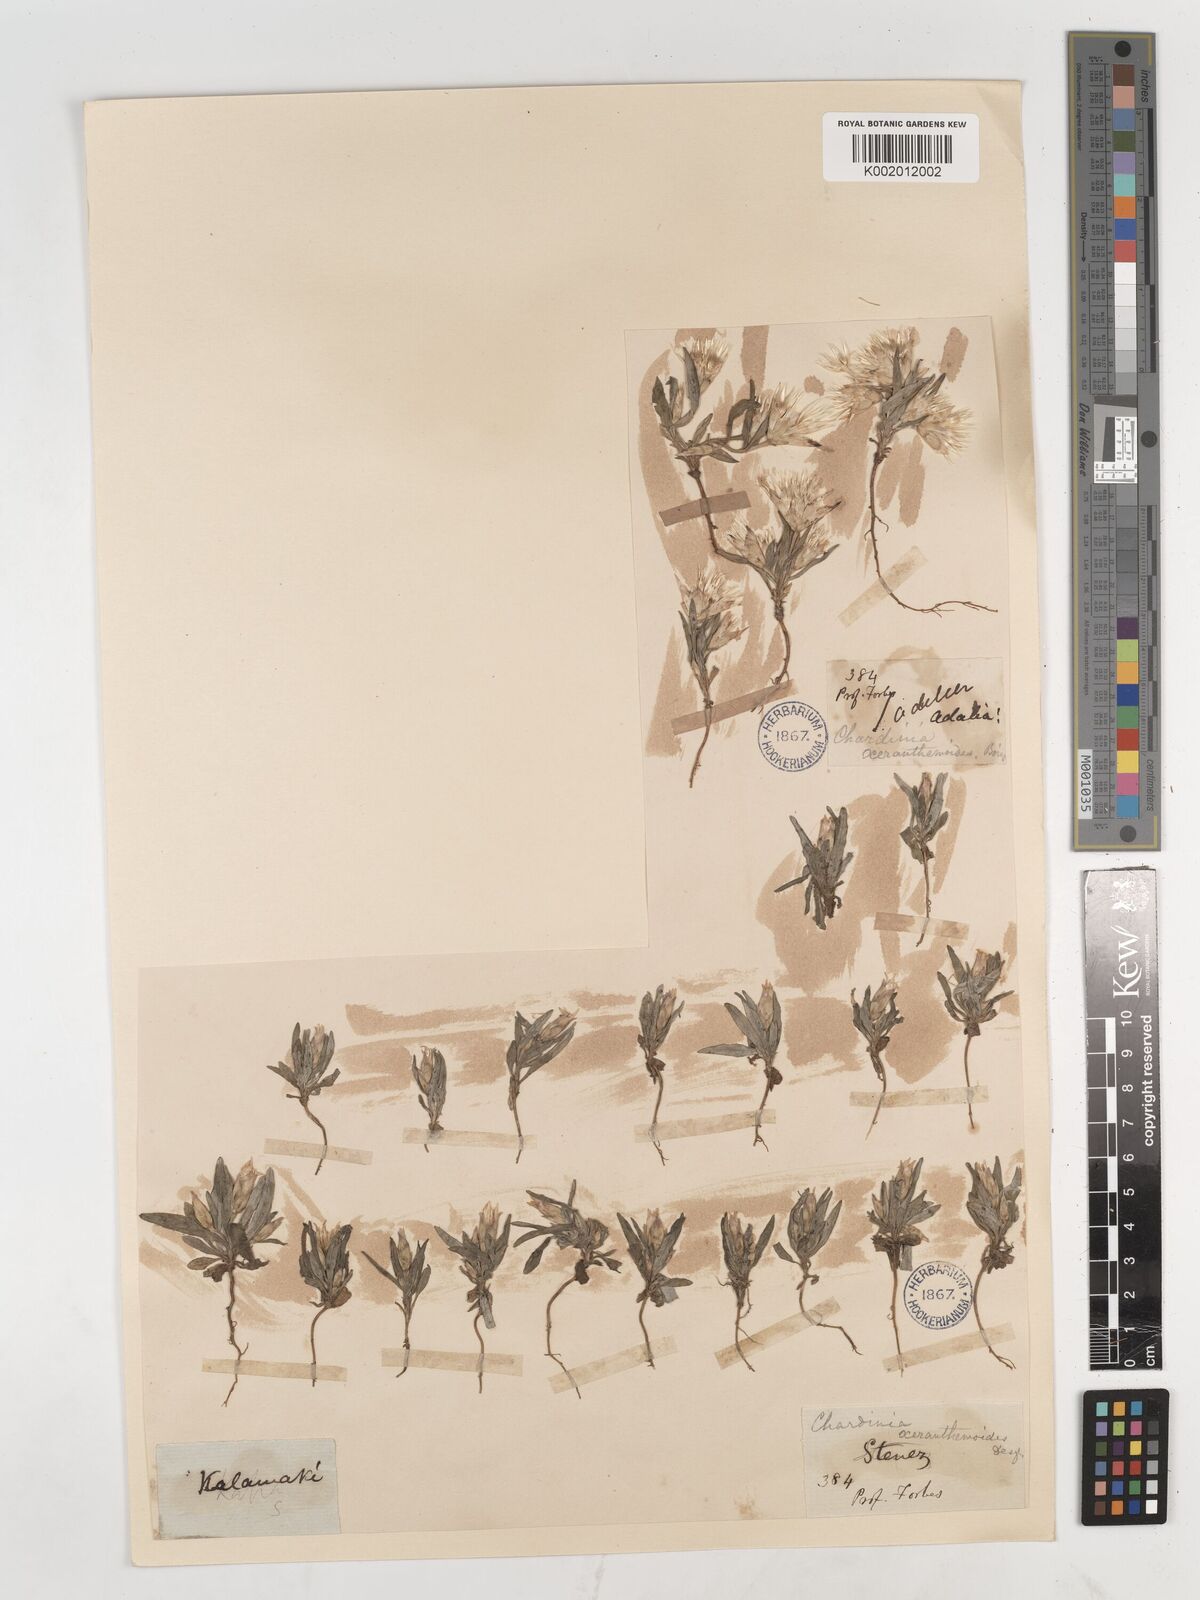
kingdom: Plantae
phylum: Tracheophyta
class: Magnoliopsida
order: Asterales
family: Asteraceae
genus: Chardinia
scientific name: Chardinia orientalis
